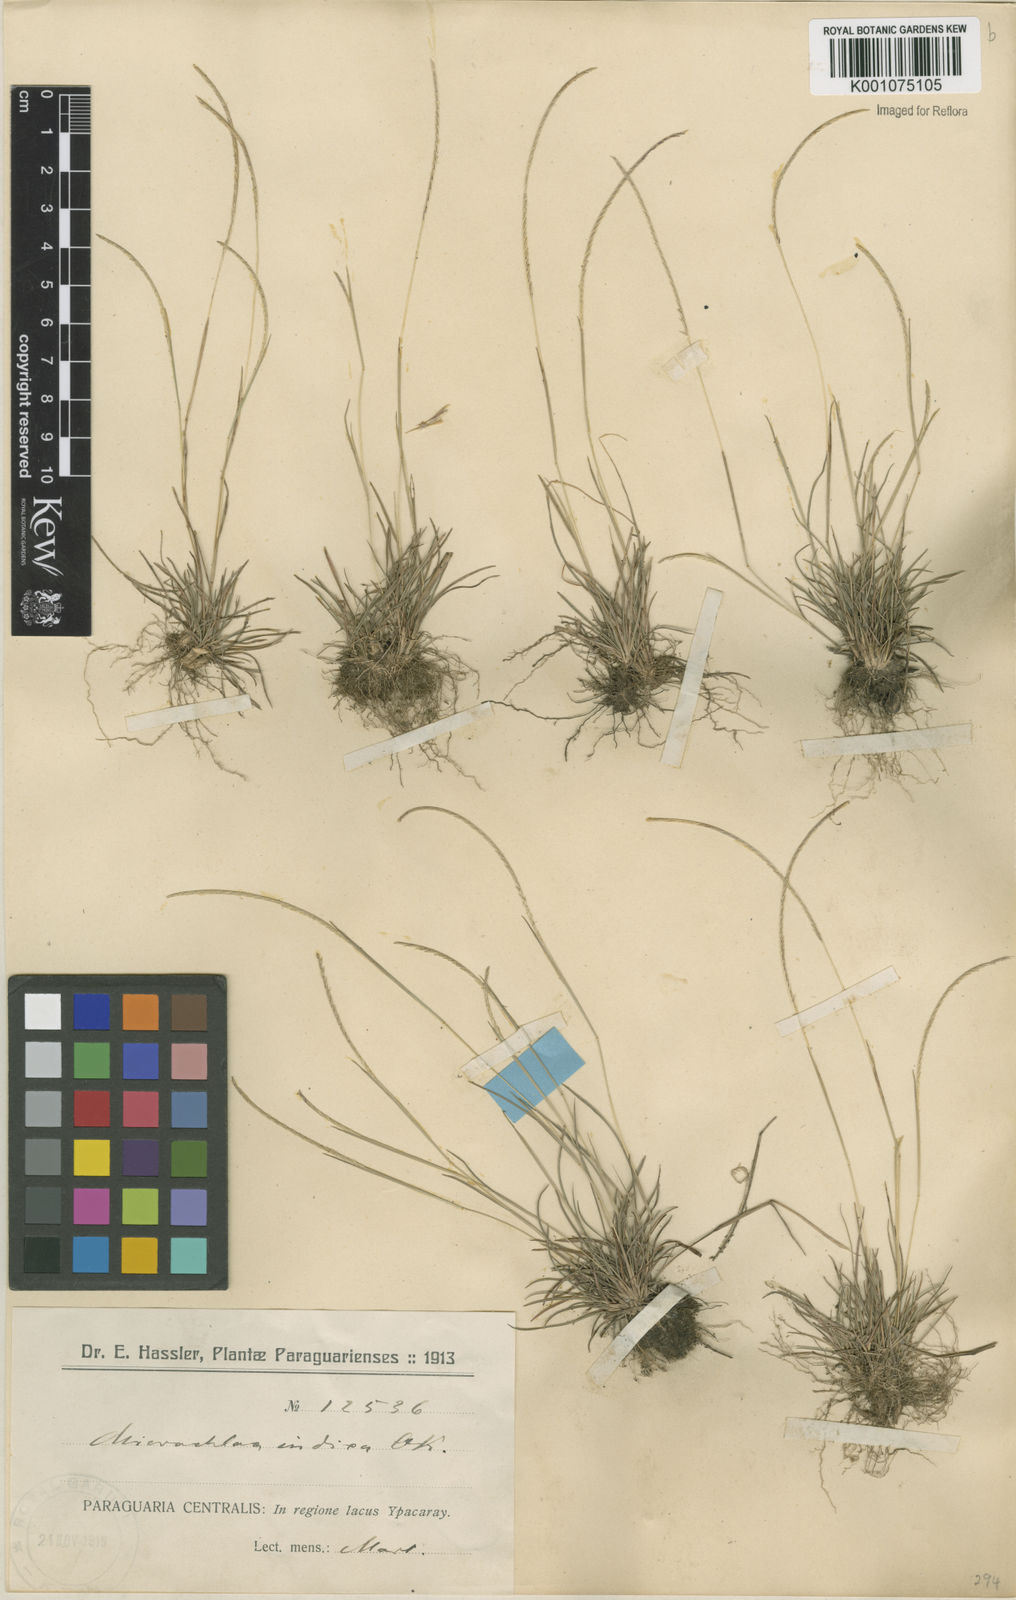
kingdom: Plantae
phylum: Tracheophyta
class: Liliopsida
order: Poales
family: Poaceae
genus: Microchloa
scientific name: Microchloa indica
